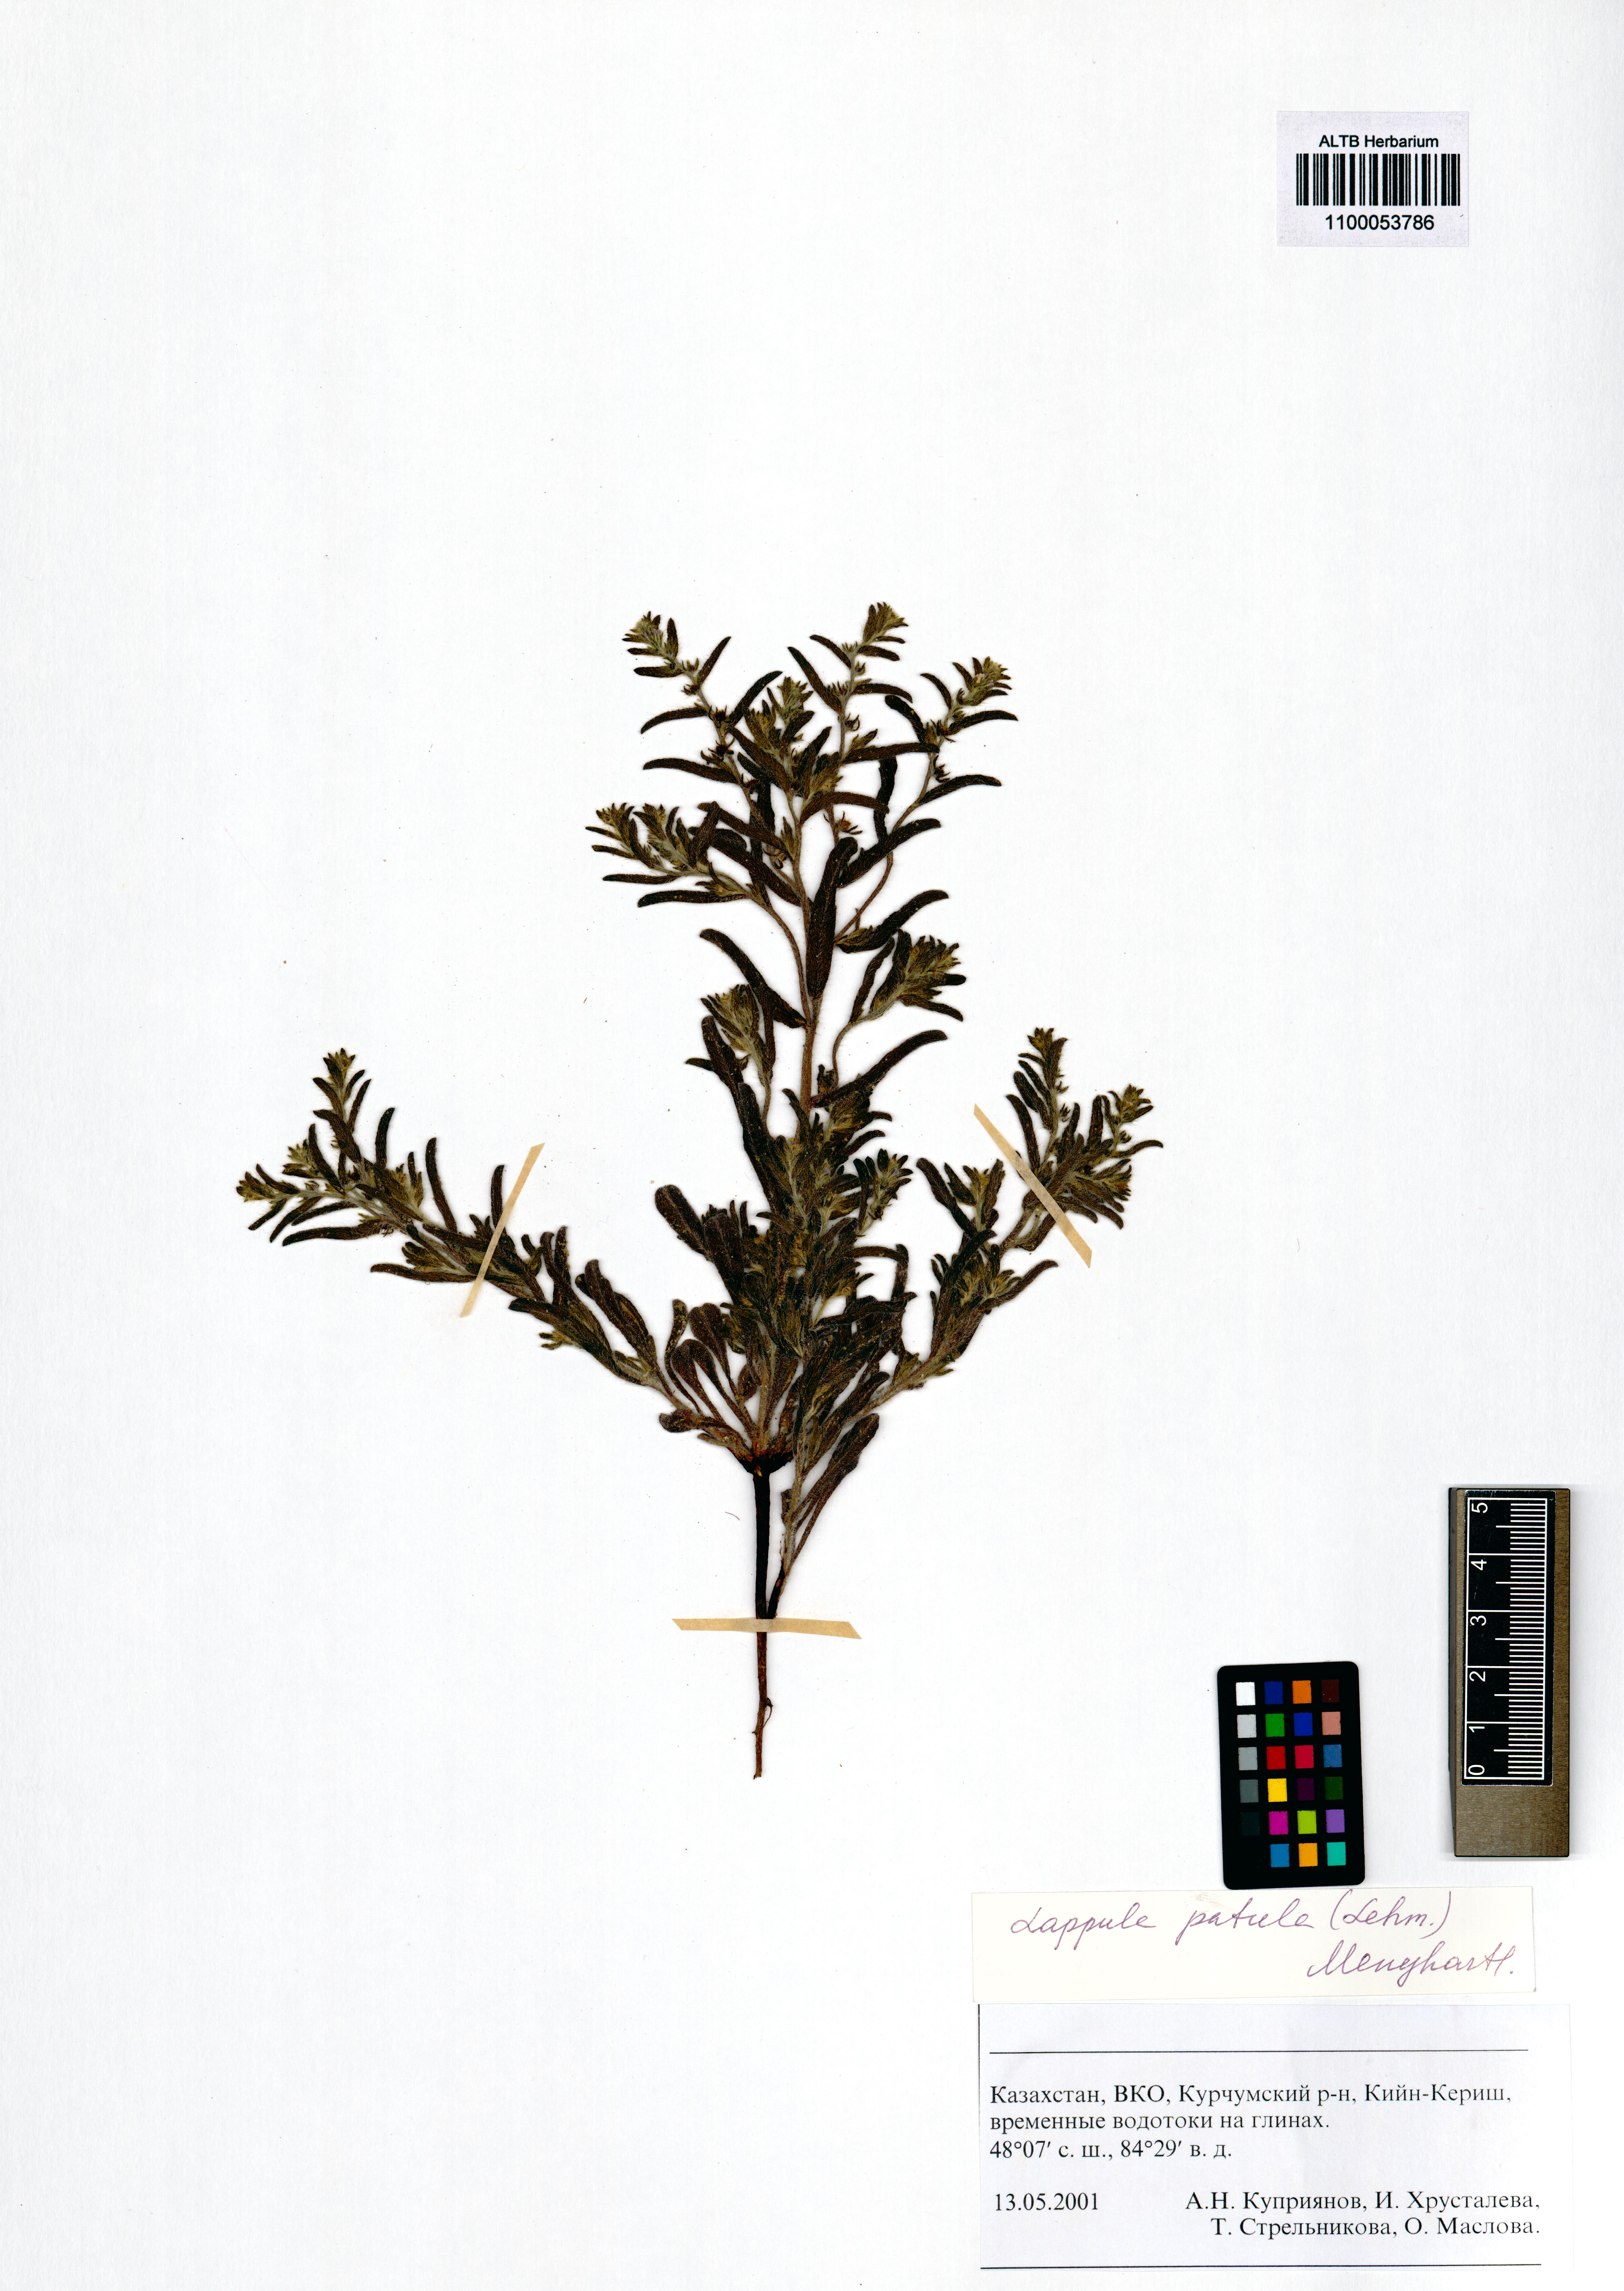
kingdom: Plantae
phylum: Tracheophyta
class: Magnoliopsida
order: Boraginales
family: Boraginaceae
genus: Lappula
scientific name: Lappula patula
